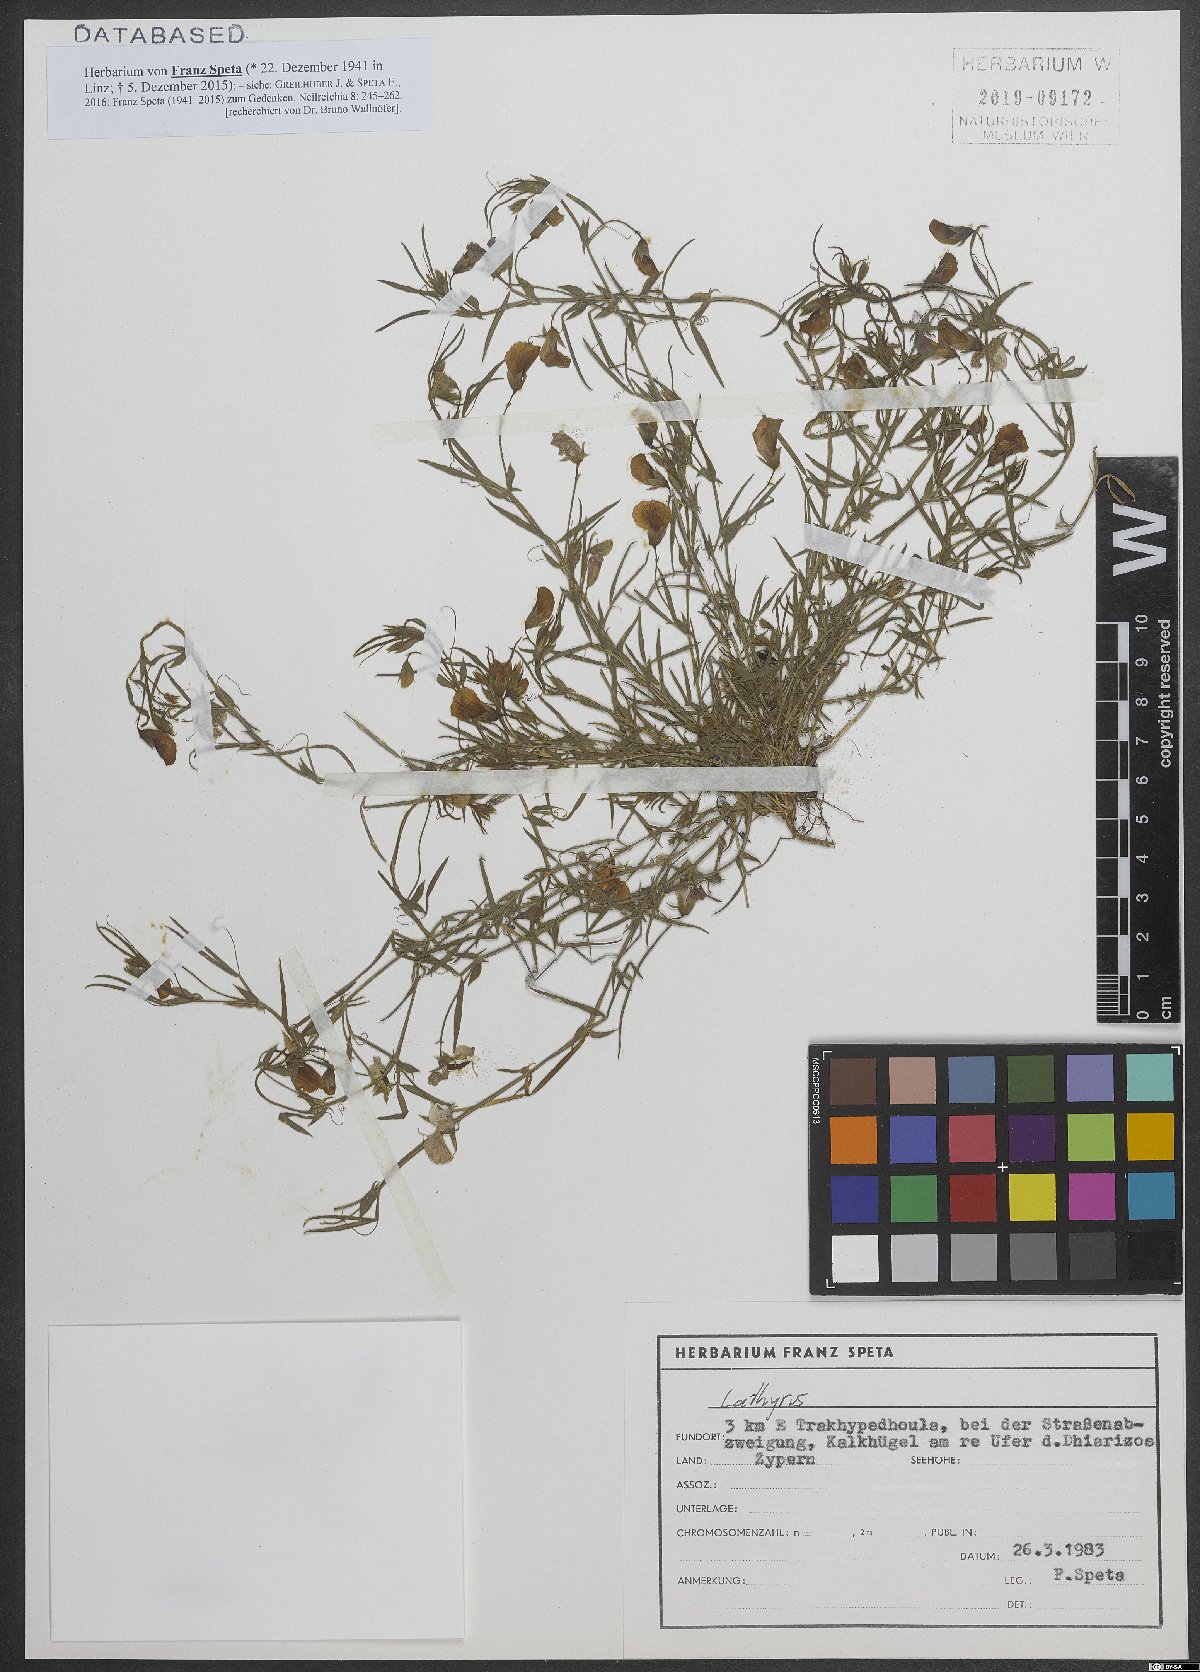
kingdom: Plantae
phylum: Tracheophyta
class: Magnoliopsida
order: Malpighiales
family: Euphorbiaceae
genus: Euphorbia
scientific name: Euphorbia
